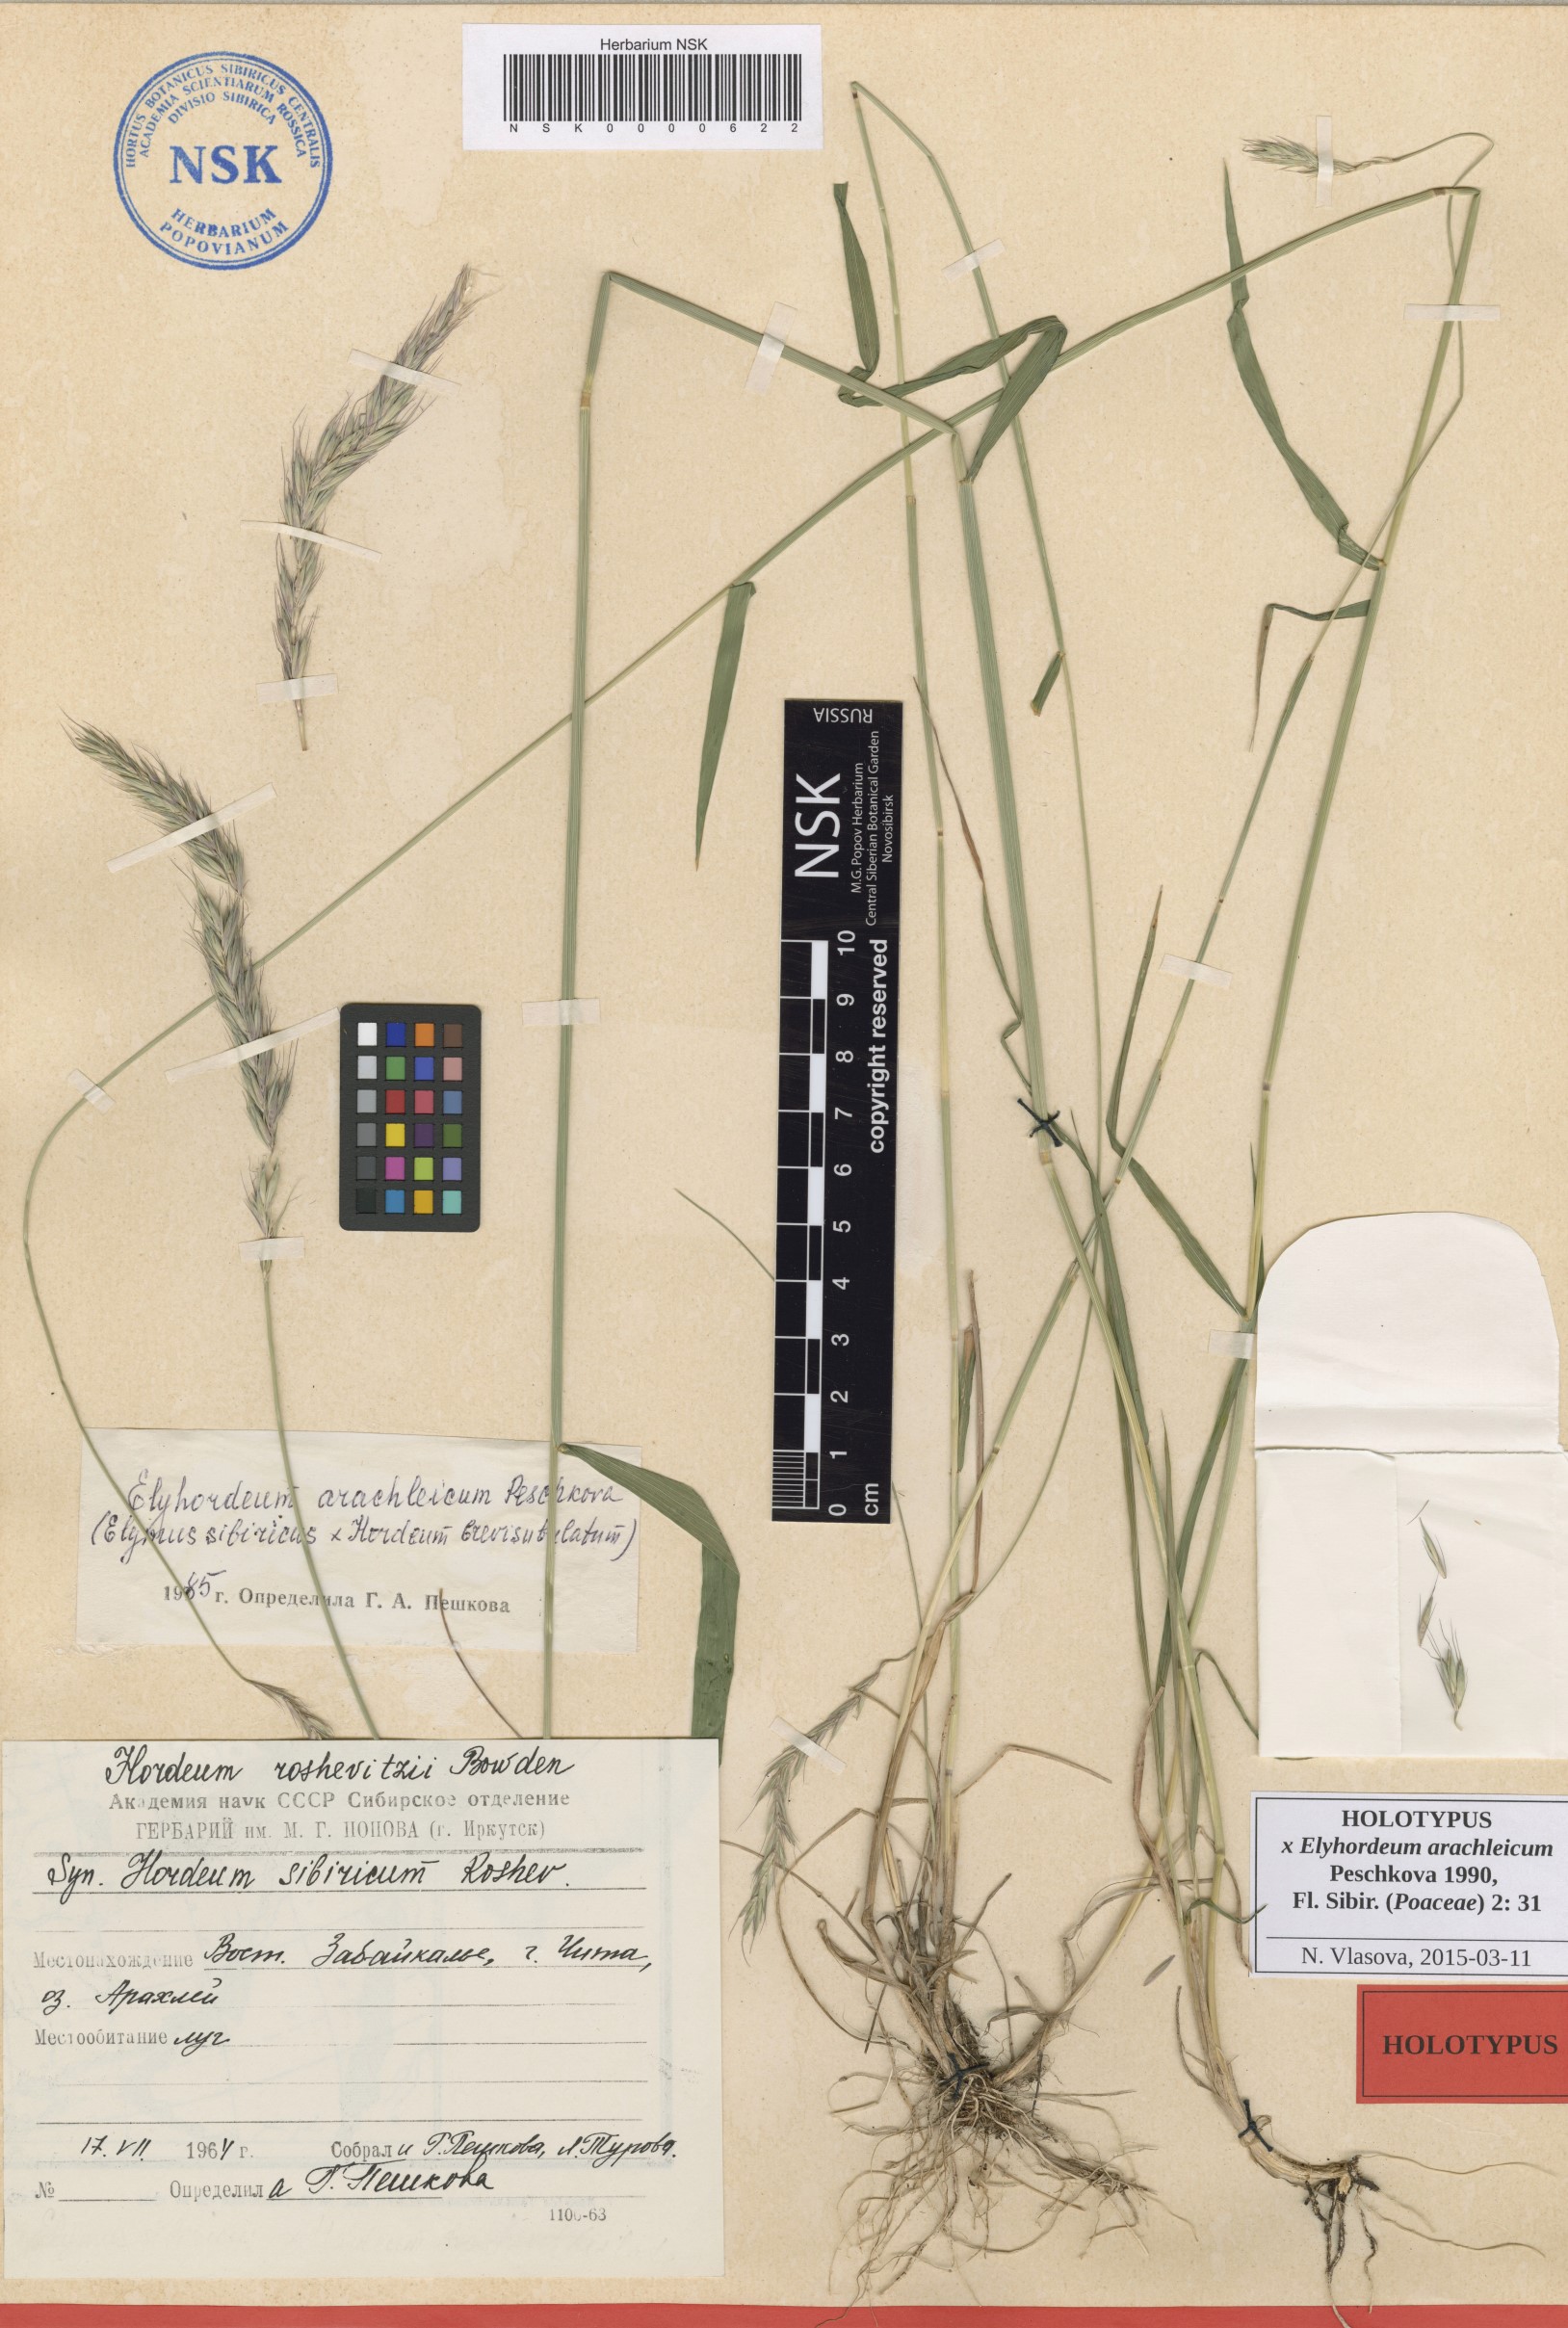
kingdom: Plantae
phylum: Tracheophyta
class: Liliopsida
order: Poales
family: Poaceae
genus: Elyhordeum
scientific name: Elyhordeum arachleicum
